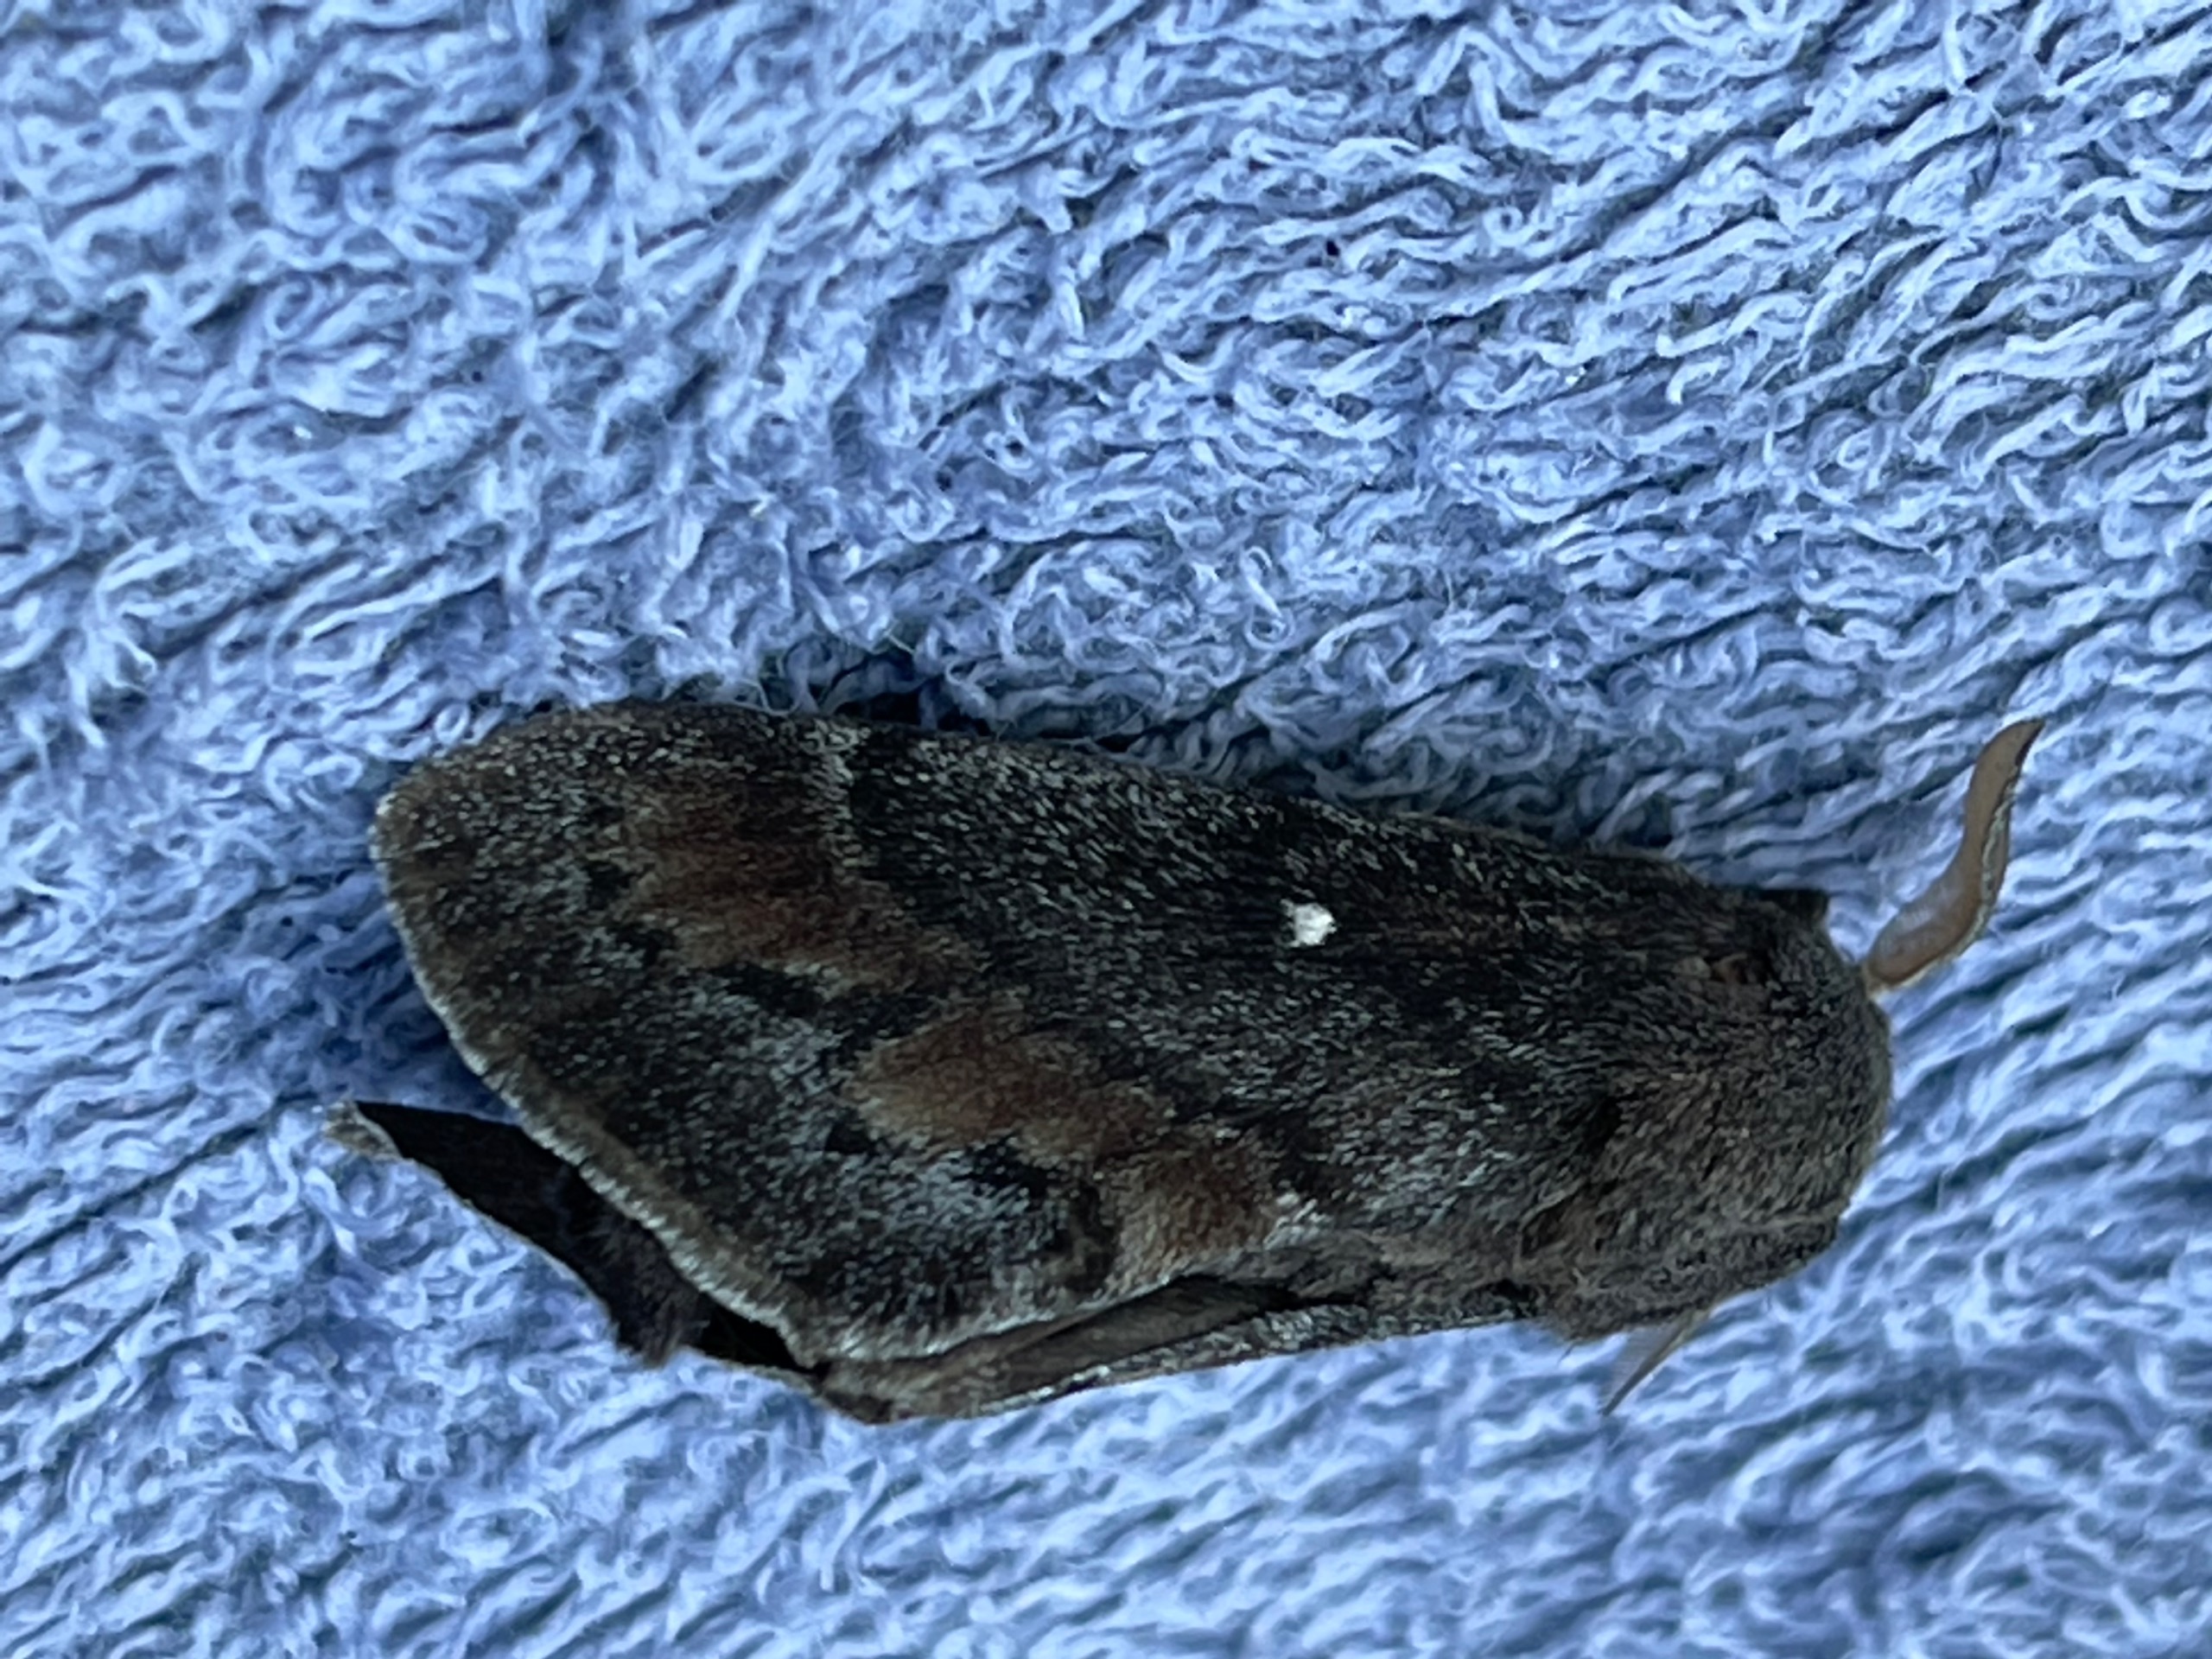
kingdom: Animalia
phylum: Arthropoda
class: Insecta
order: Lepidoptera
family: Lasiocampidae
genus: Dendrolimus
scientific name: Dendrolimus pini
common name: Fyrrespinder
